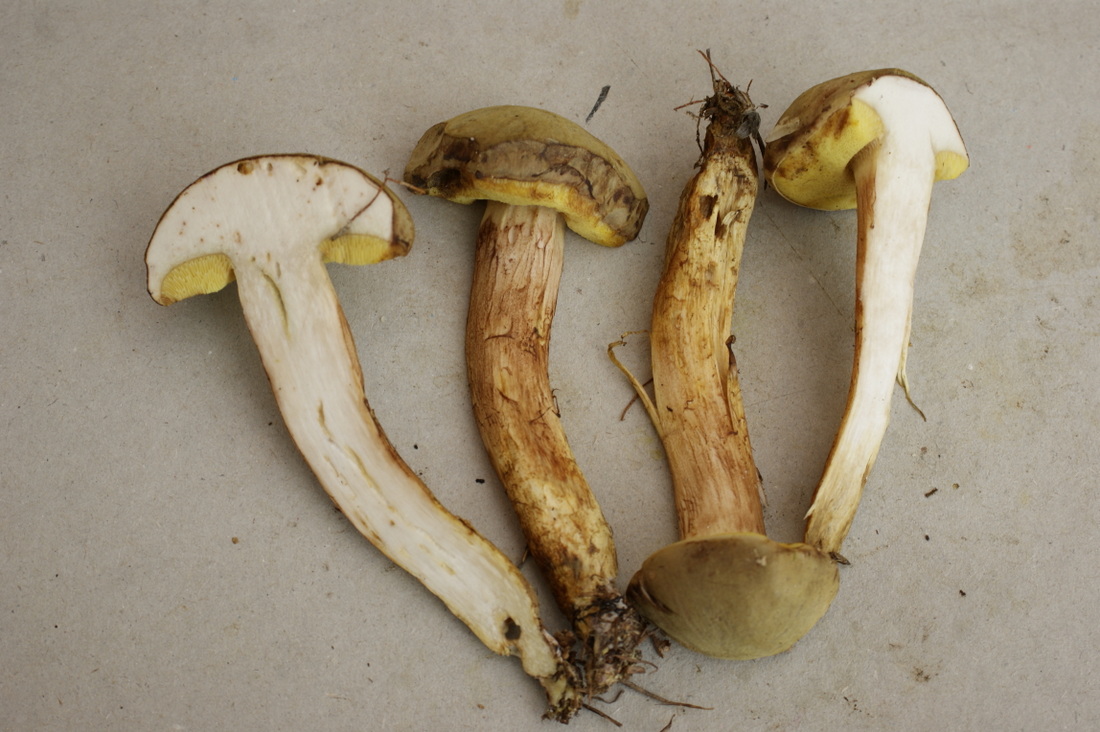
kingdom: Fungi
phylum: Basidiomycota
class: Agaricomycetes
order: Boletales
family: Boletaceae
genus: Xerocomus
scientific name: Xerocomus ferrugineus
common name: vaskeskinds-rørhat
